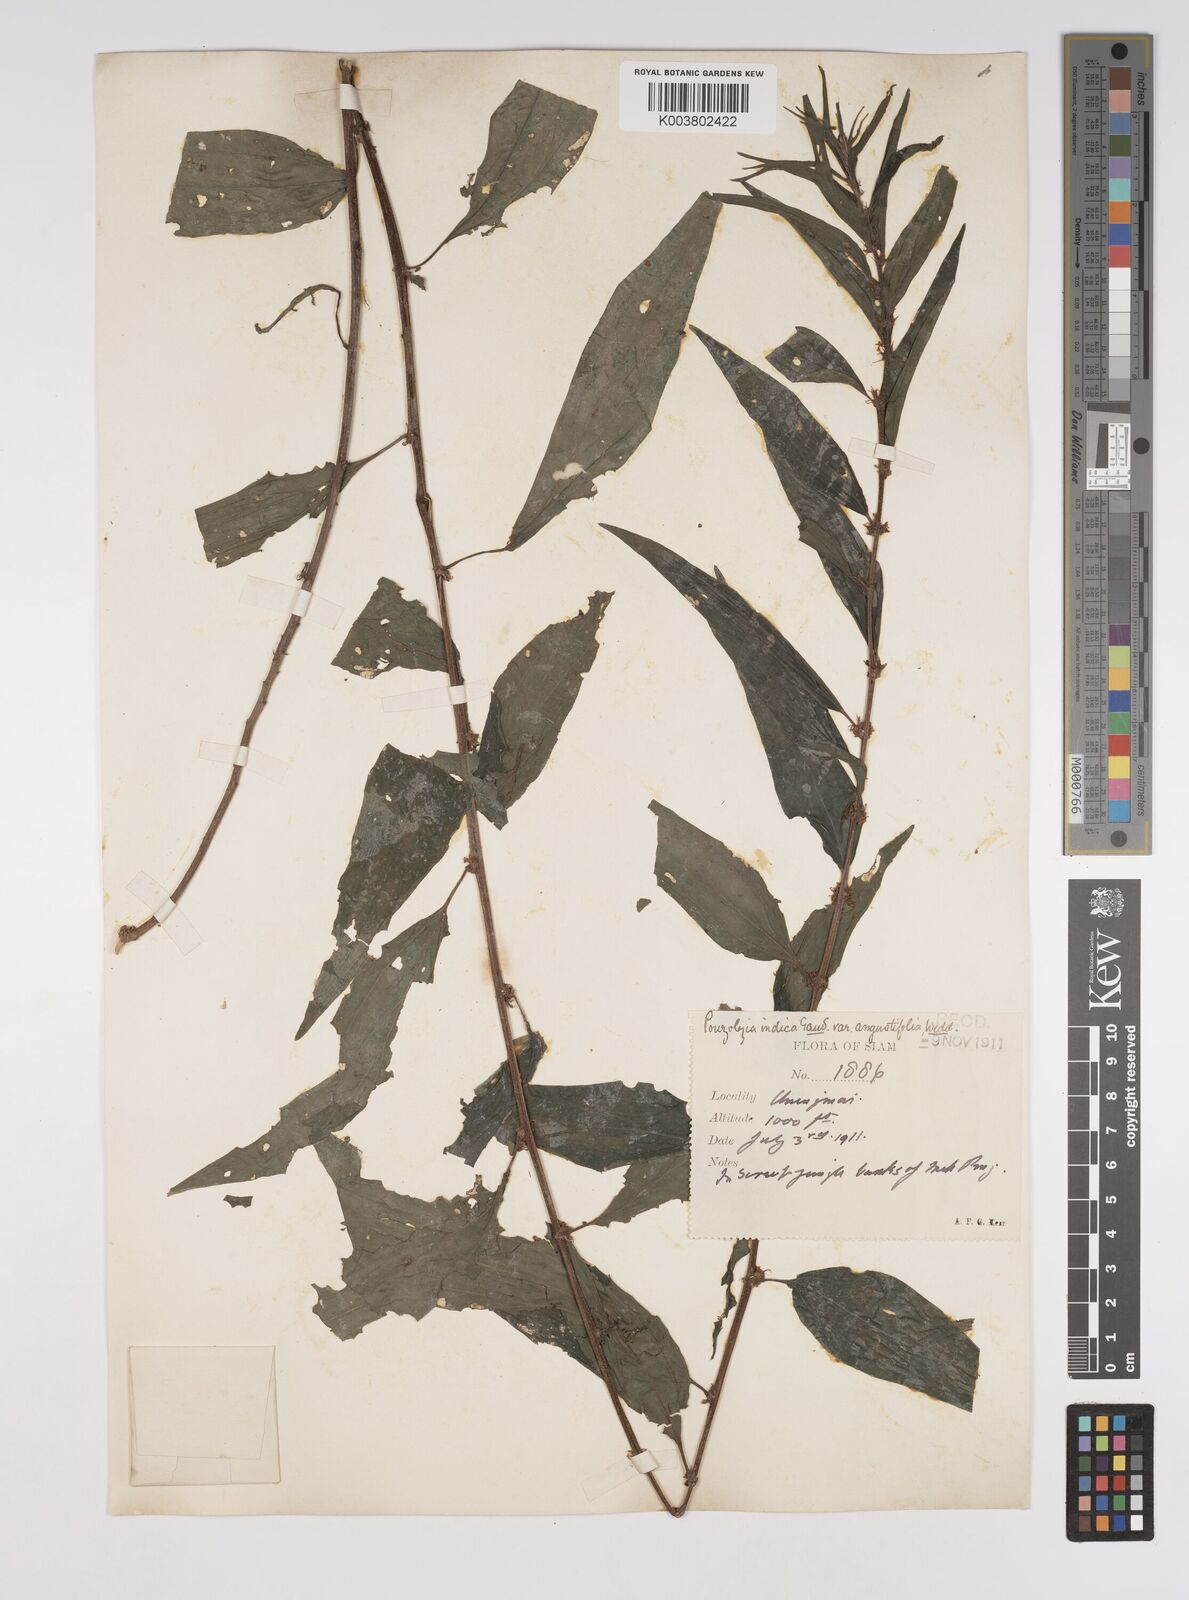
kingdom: Plantae
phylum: Tracheophyta
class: Magnoliopsida
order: Rosales
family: Urticaceae
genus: Pouzolzia
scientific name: Pouzolzia zeylanica
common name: Graceful pouzolzsbush
